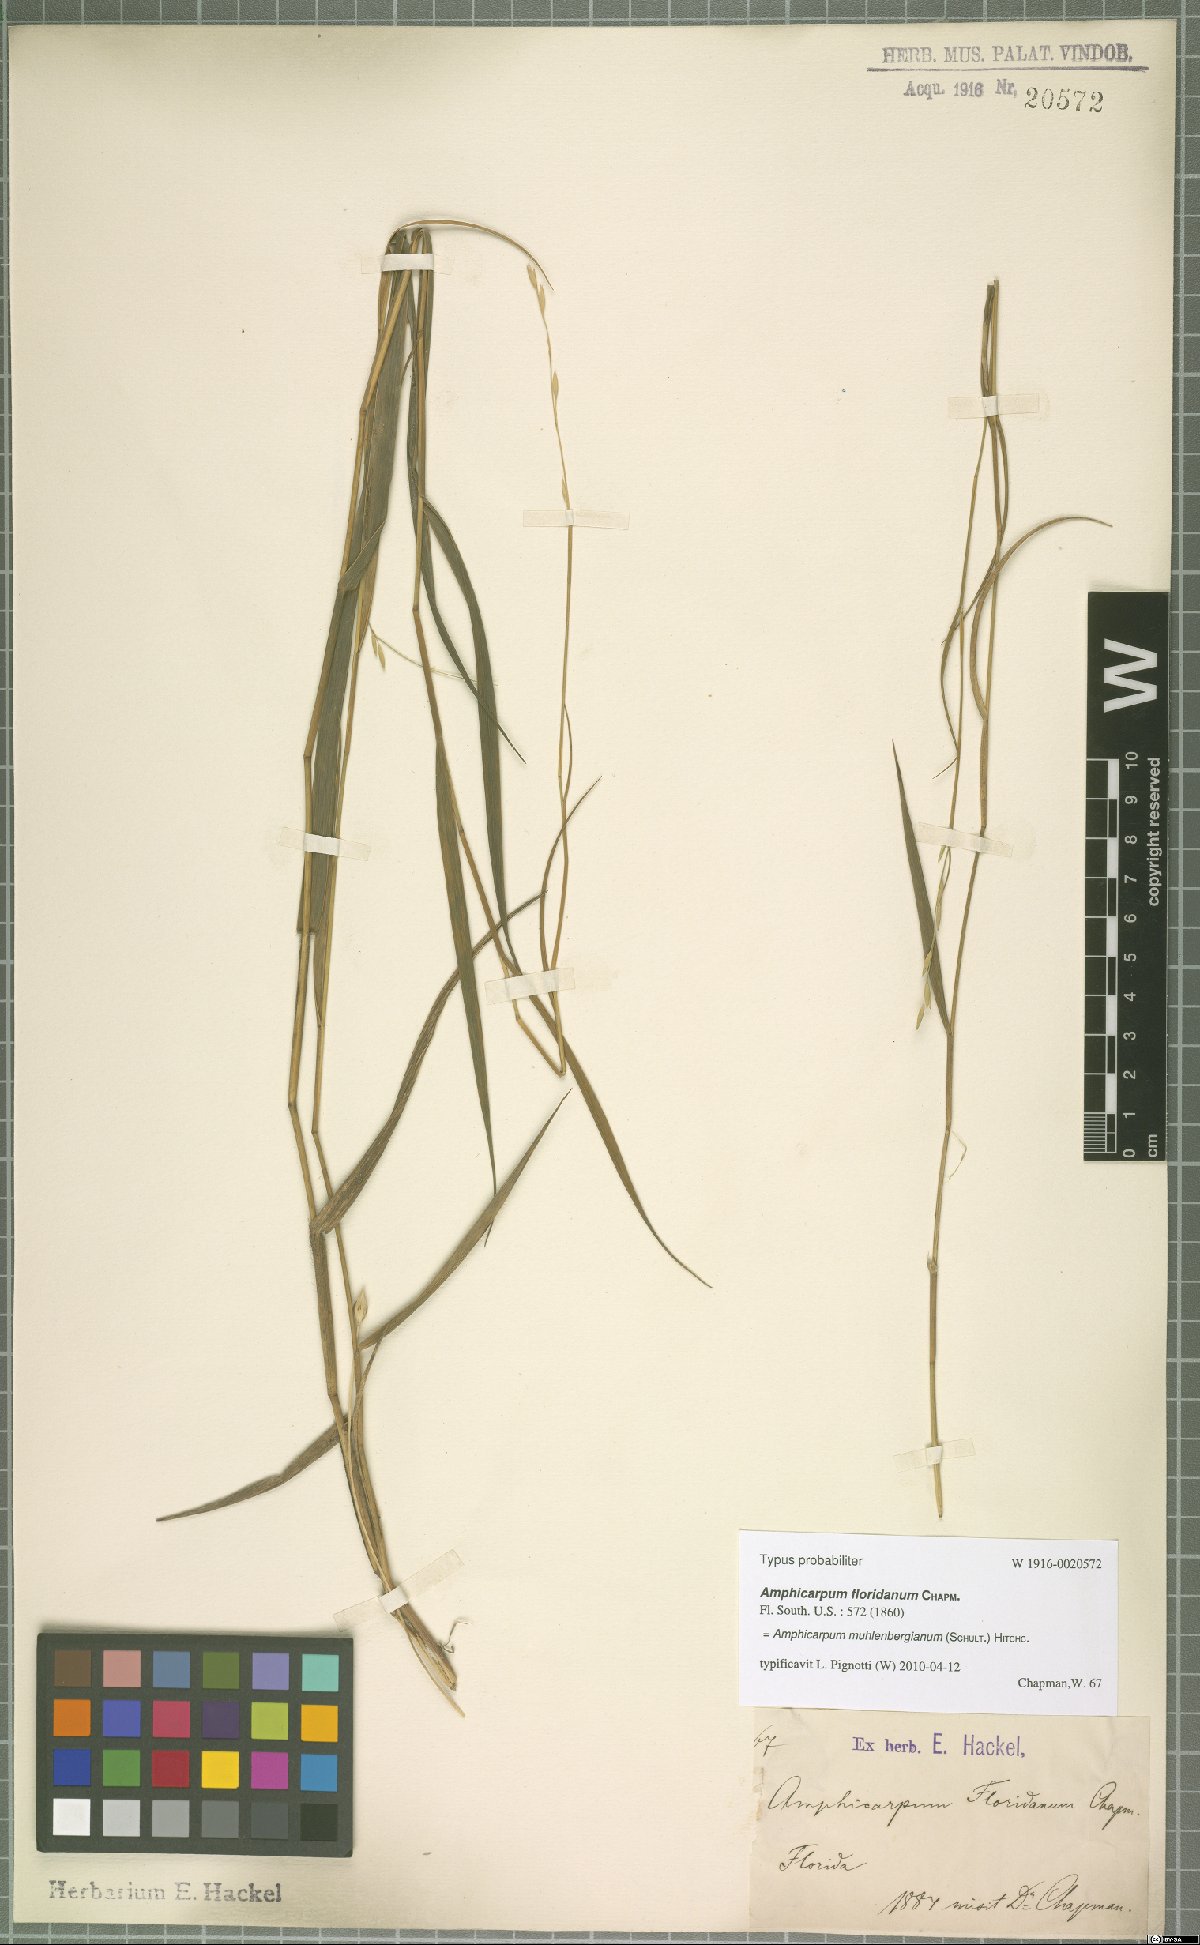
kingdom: Plantae
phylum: Tracheophyta
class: Liliopsida
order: Poales
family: Poaceae
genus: Amphicarpum
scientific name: Amphicarpum muhlenbergianum
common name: Blue maidencane
